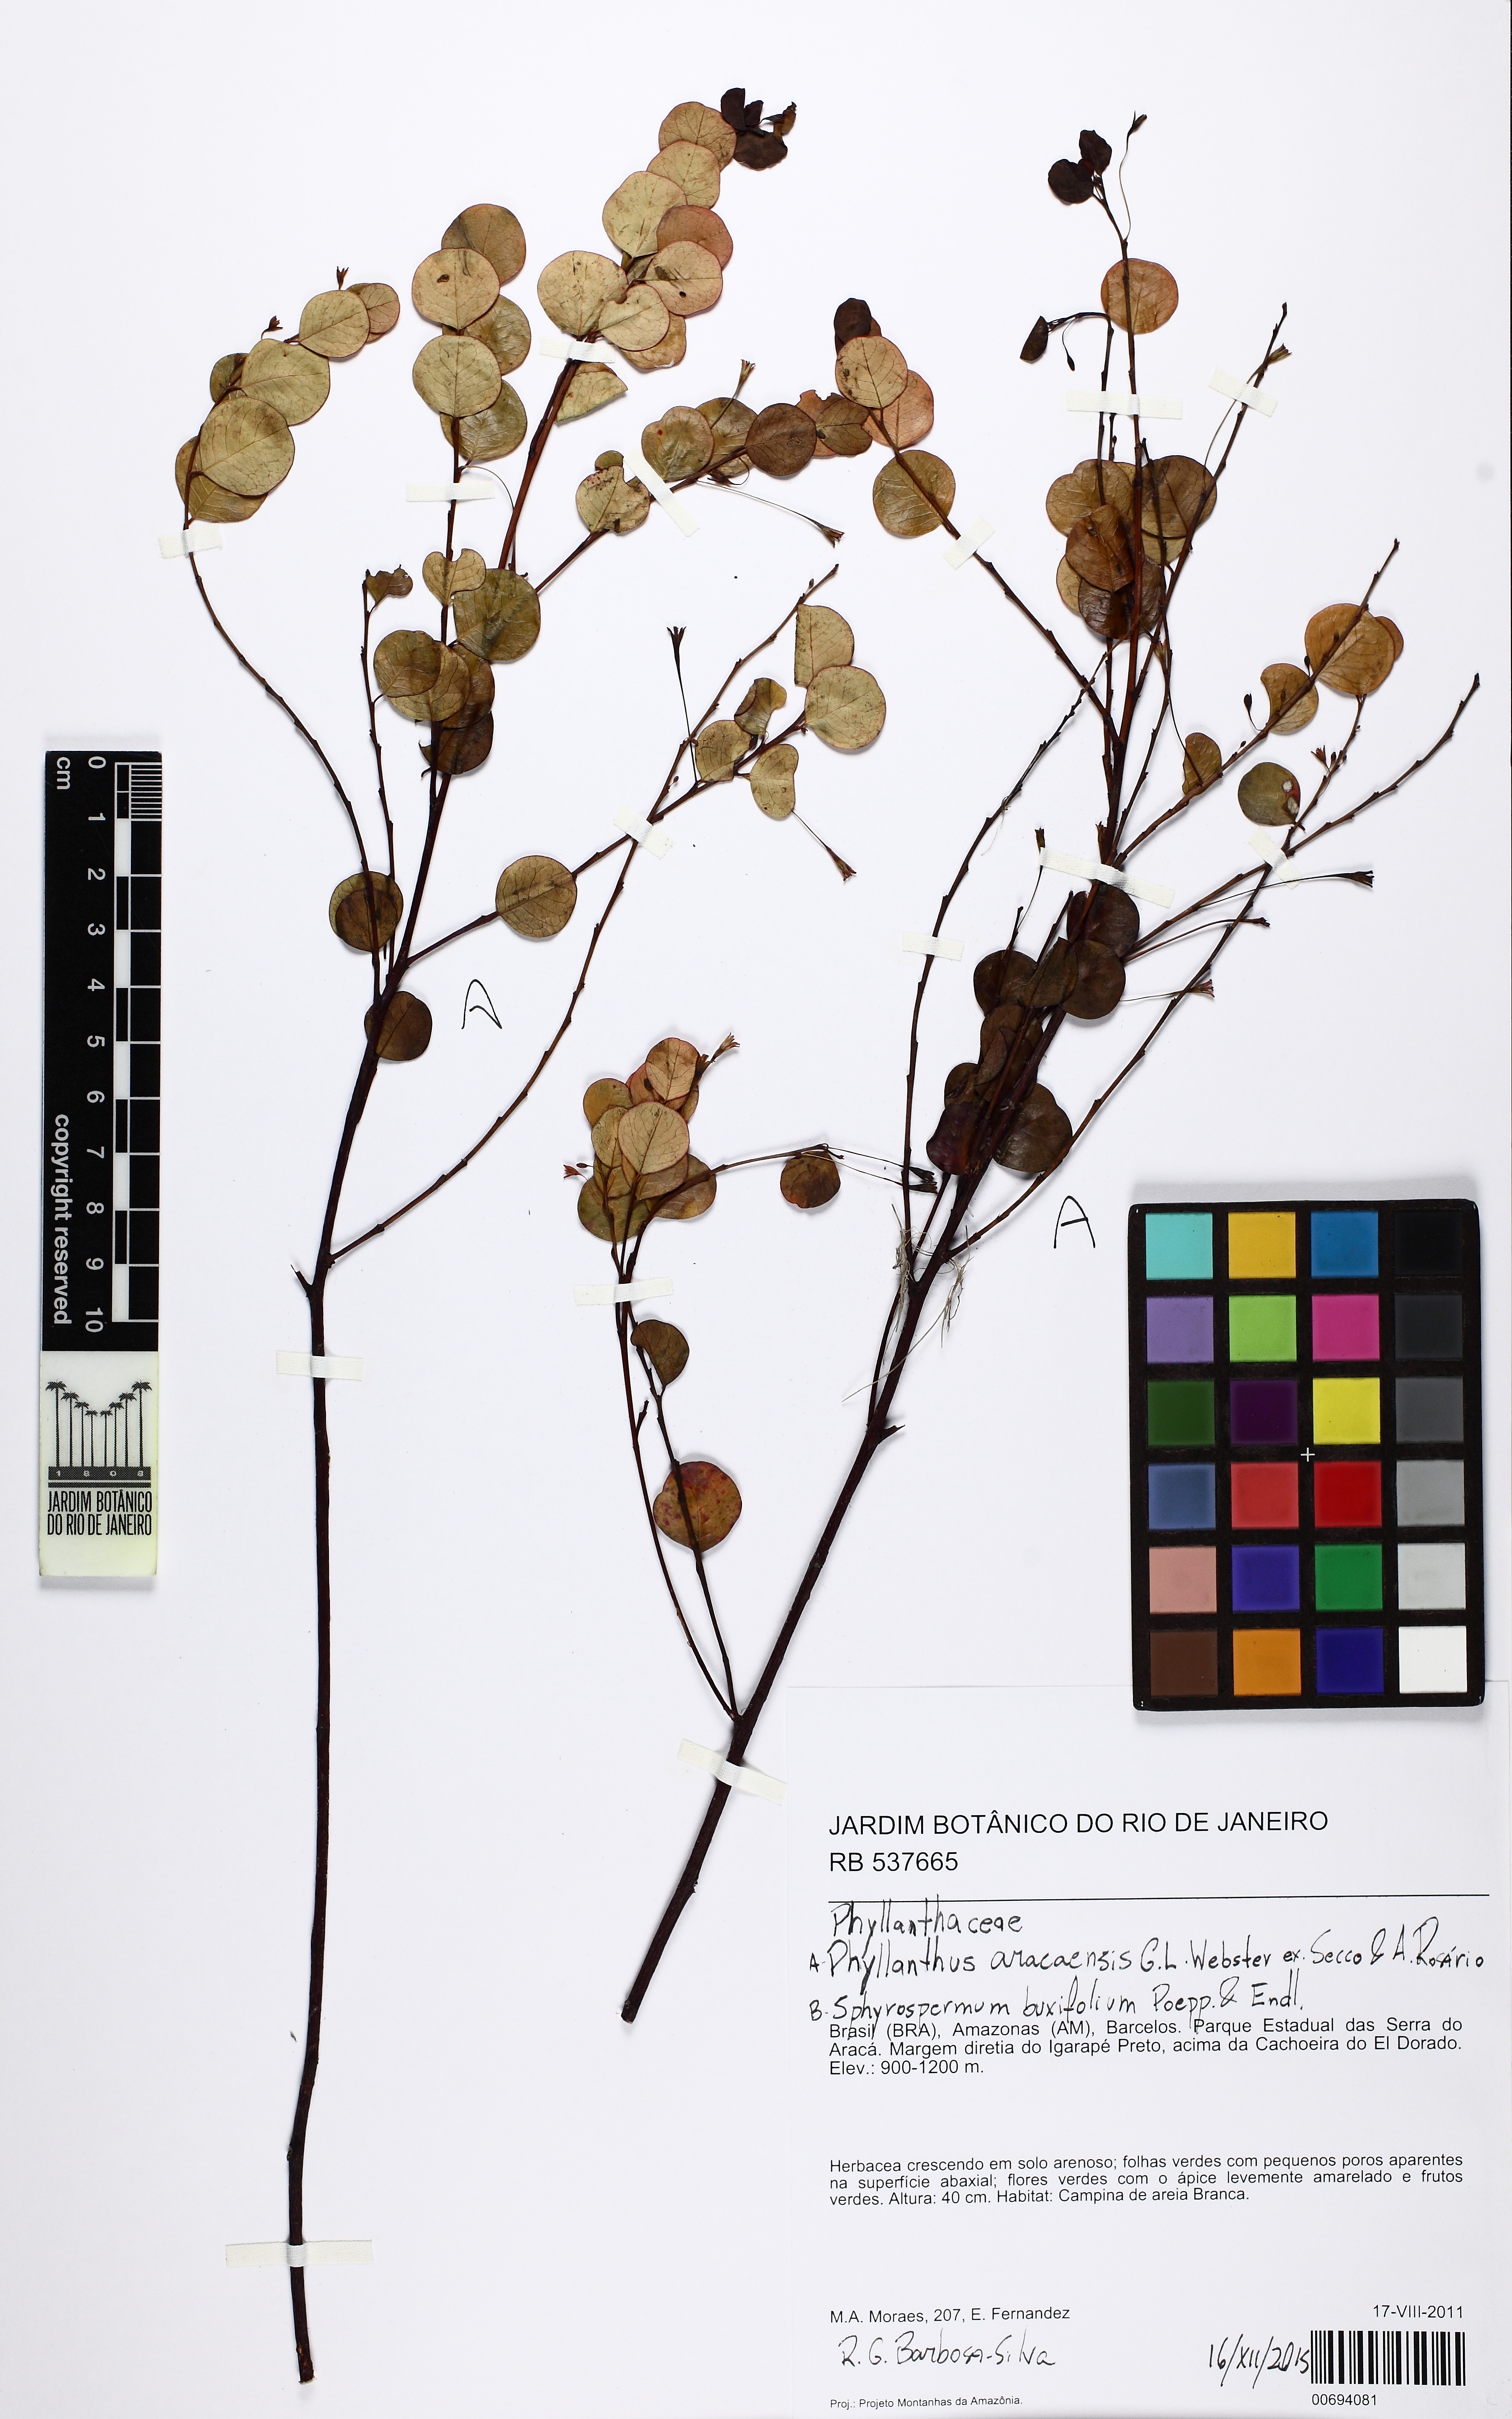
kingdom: Plantae
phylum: Tracheophyta
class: Magnoliopsida
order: Malpighiales
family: Phyllanthaceae
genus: Phyllanthus
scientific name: Phyllanthus aracaensis
